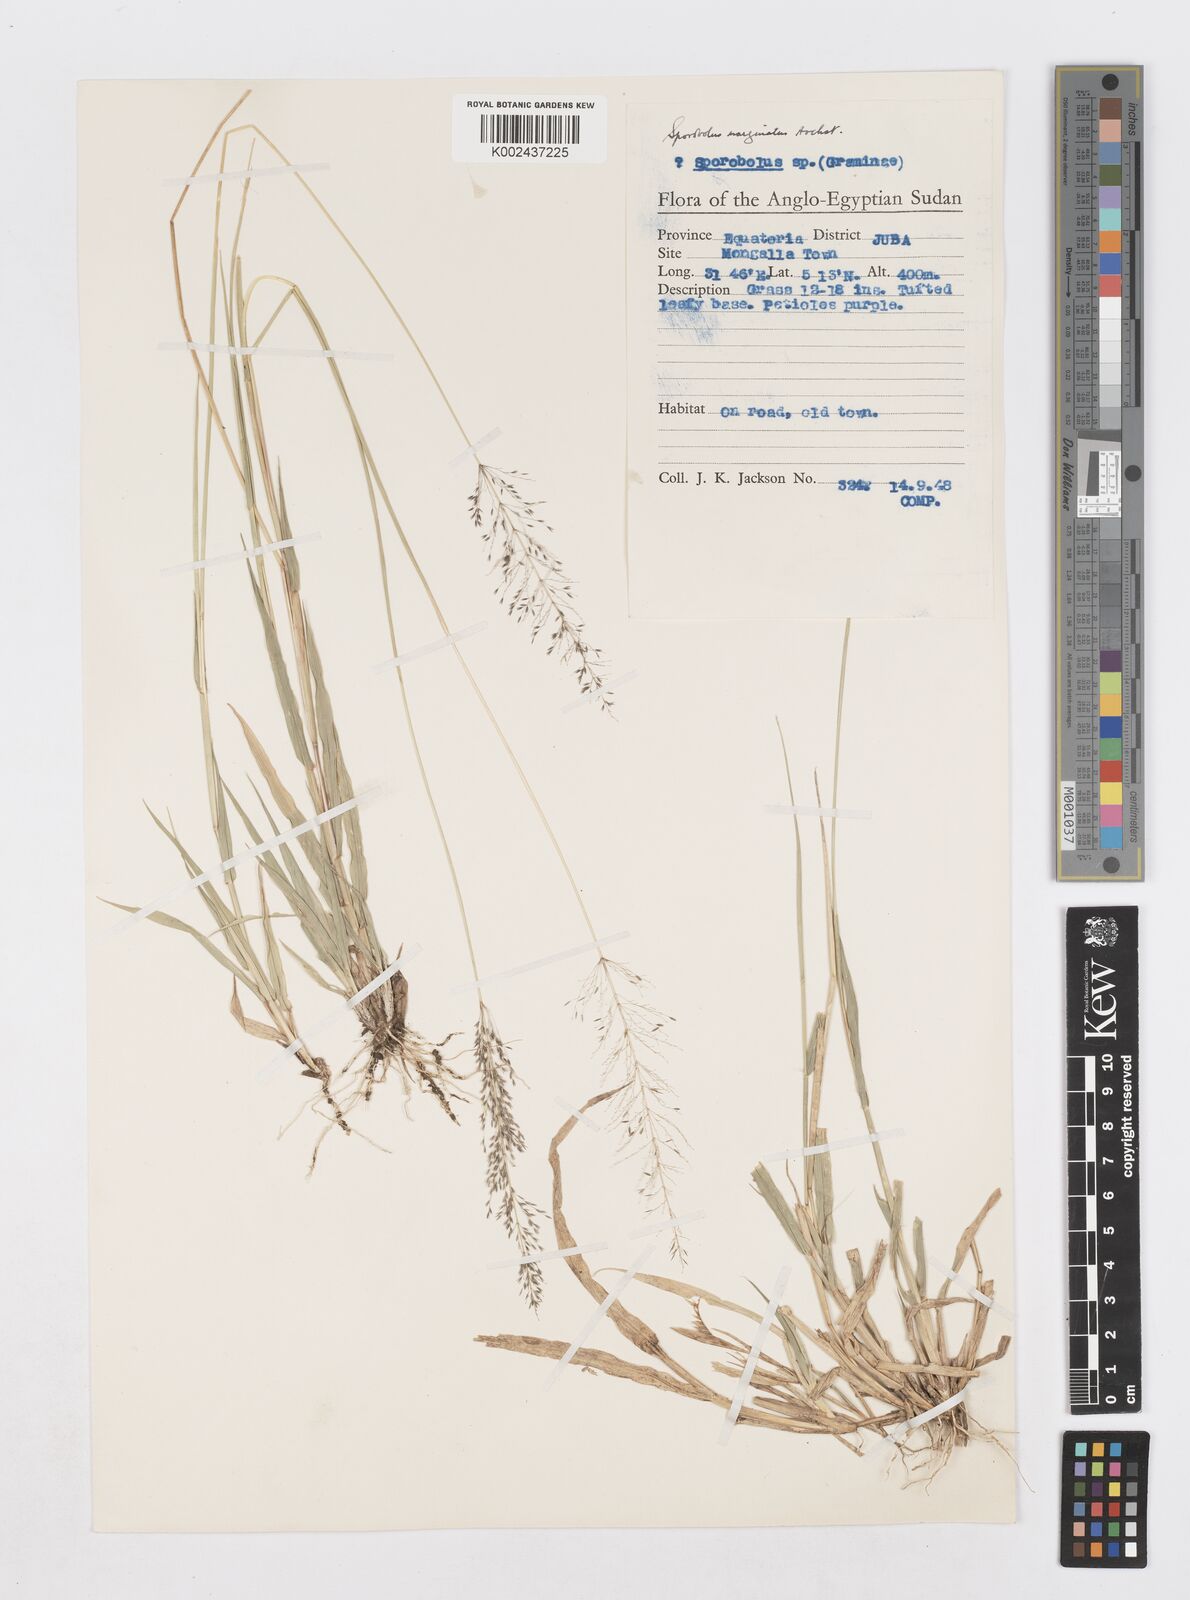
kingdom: Plantae
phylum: Tracheophyta
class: Liliopsida
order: Poales
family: Poaceae
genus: Sporobolus
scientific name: Sporobolus ioclados
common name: Pan dropseed
